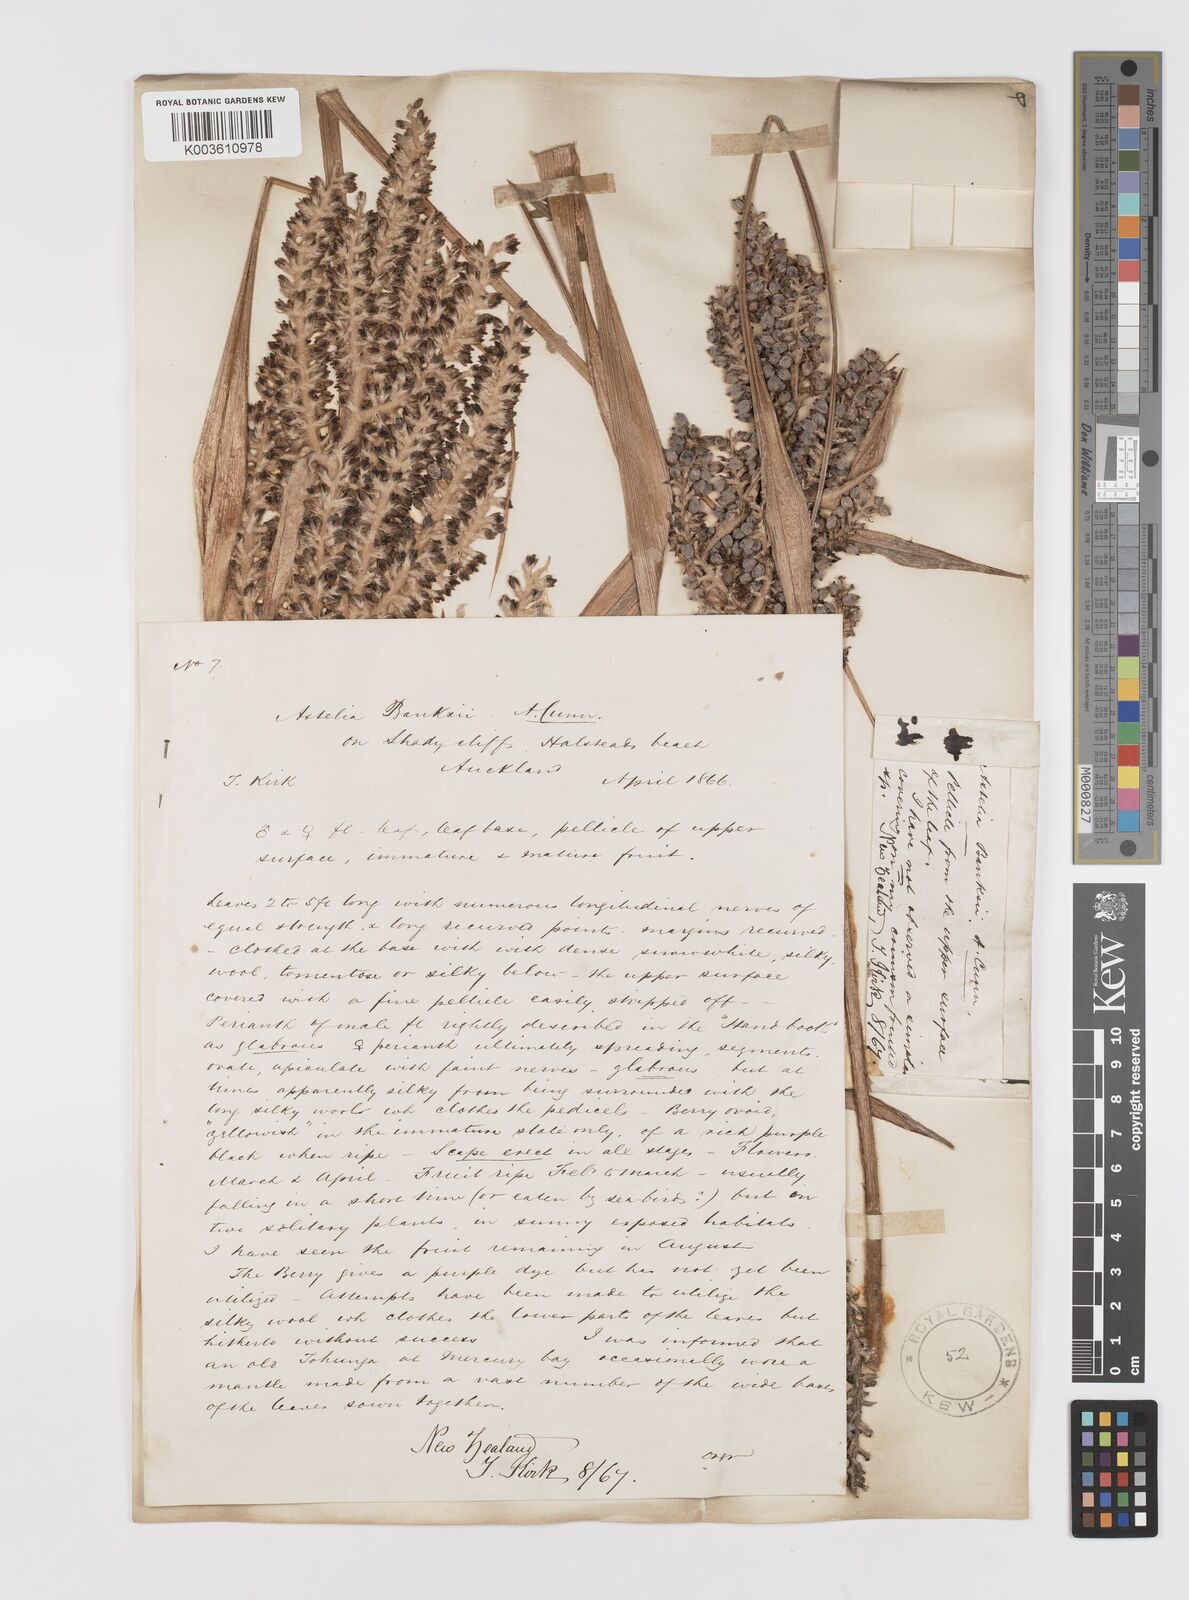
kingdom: Plantae
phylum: Tracheophyta
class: Liliopsida
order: Asparagales
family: Asteliaceae
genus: Astelia
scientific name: Astelia banksii
